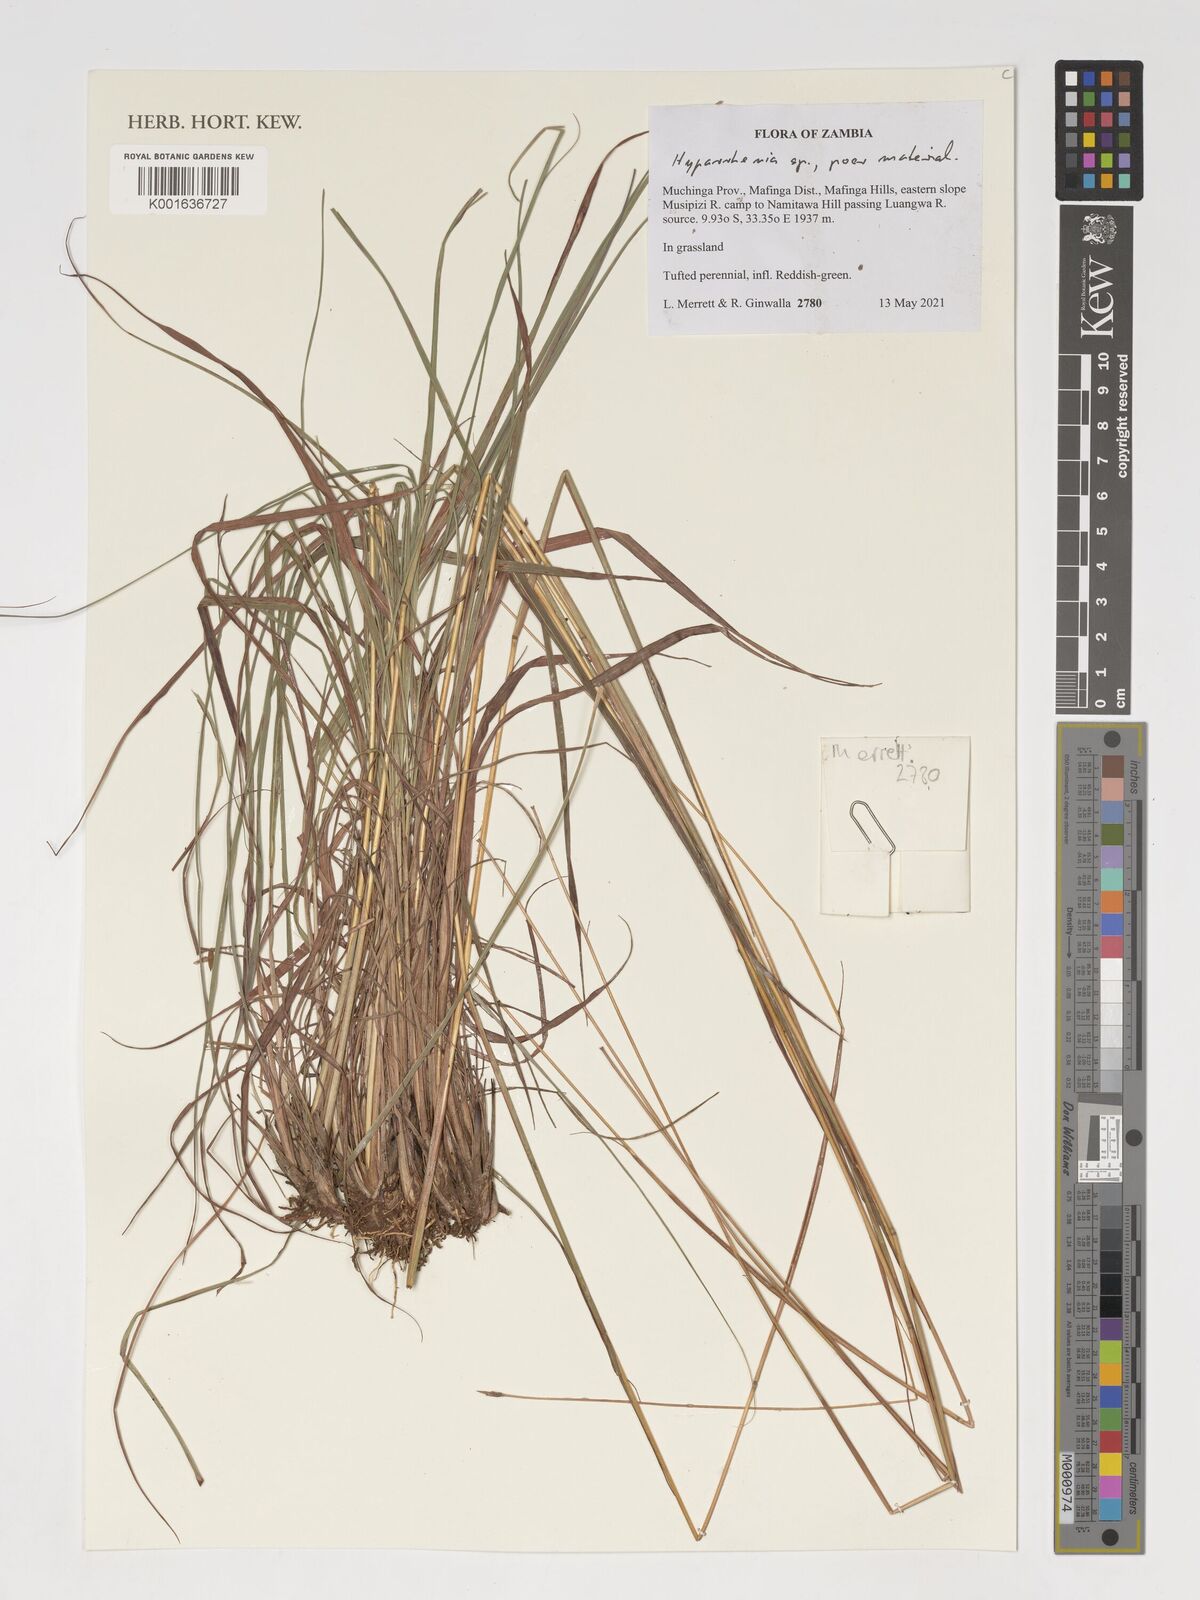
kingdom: Plantae
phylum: Tracheophyta
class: Liliopsida
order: Poales
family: Poaceae
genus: Hyparrhenia
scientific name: Hyparrhenia
